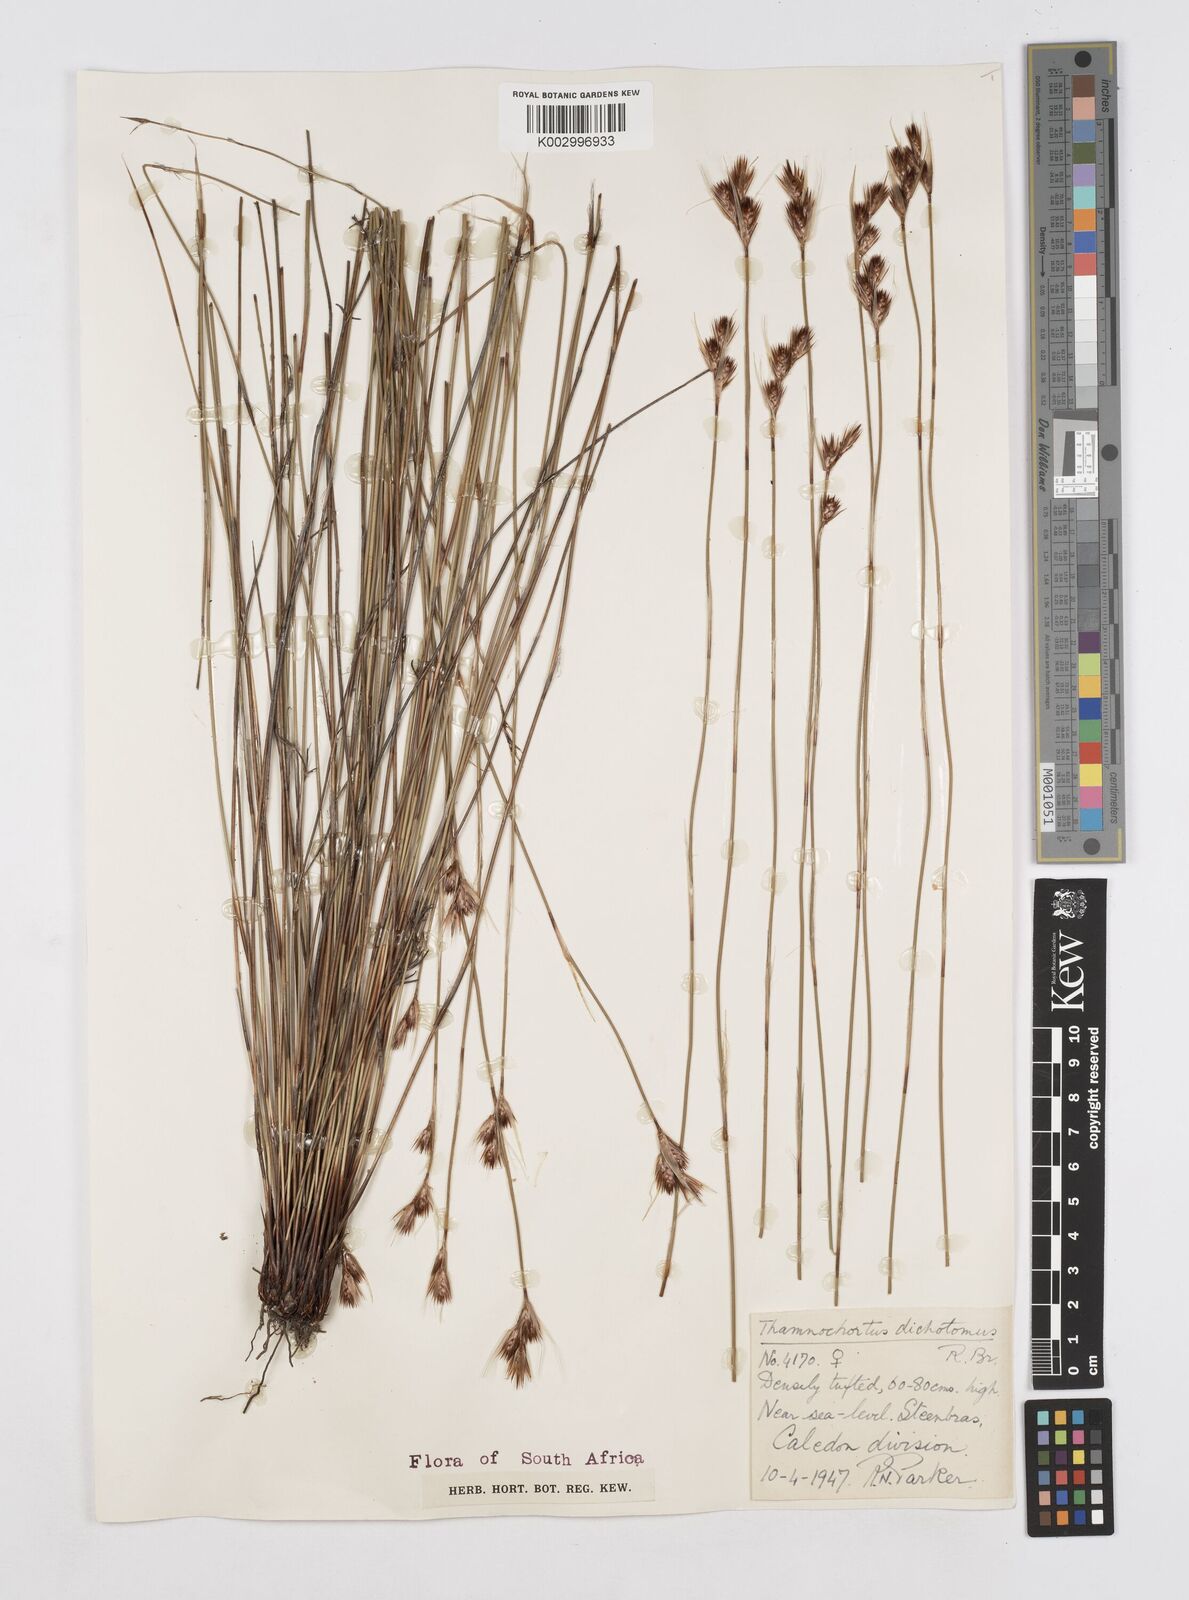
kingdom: Plantae
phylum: Tracheophyta
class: Liliopsida
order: Poales
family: Restionaceae
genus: Thamnochortus
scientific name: Thamnochortus lucens
